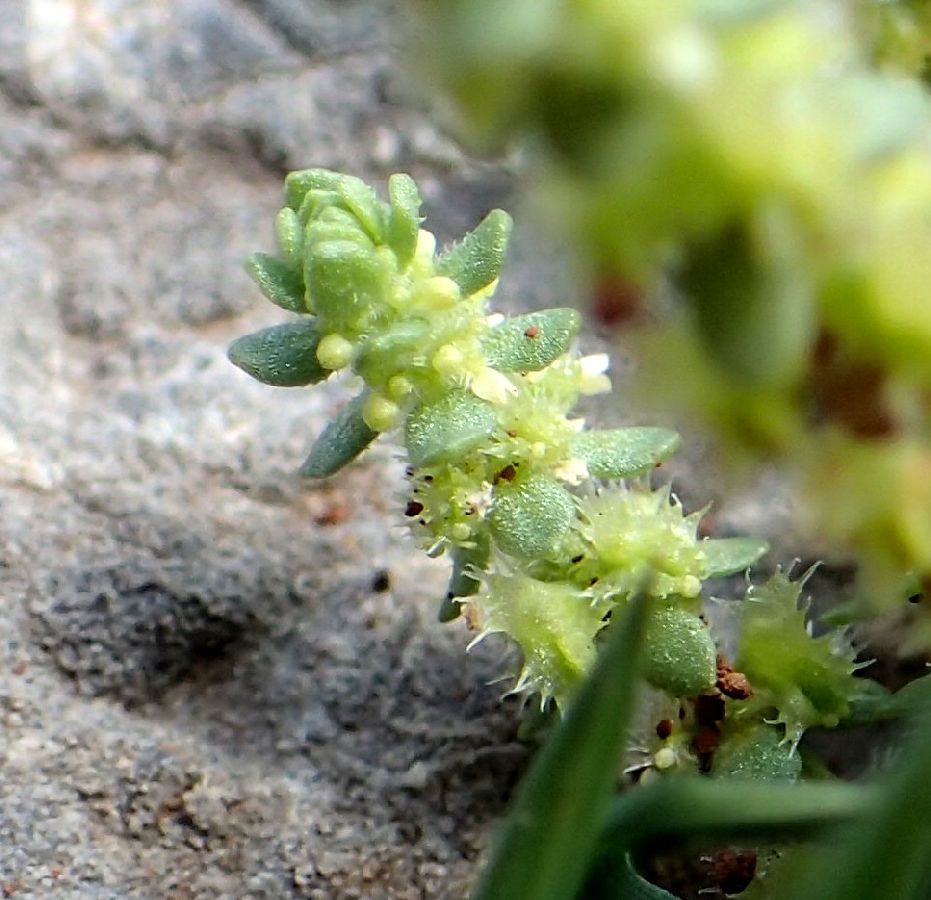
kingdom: Plantae
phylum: Tracheophyta
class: Magnoliopsida
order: Gentianales
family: Rubiaceae
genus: Valantia
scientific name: Valantia muralis
